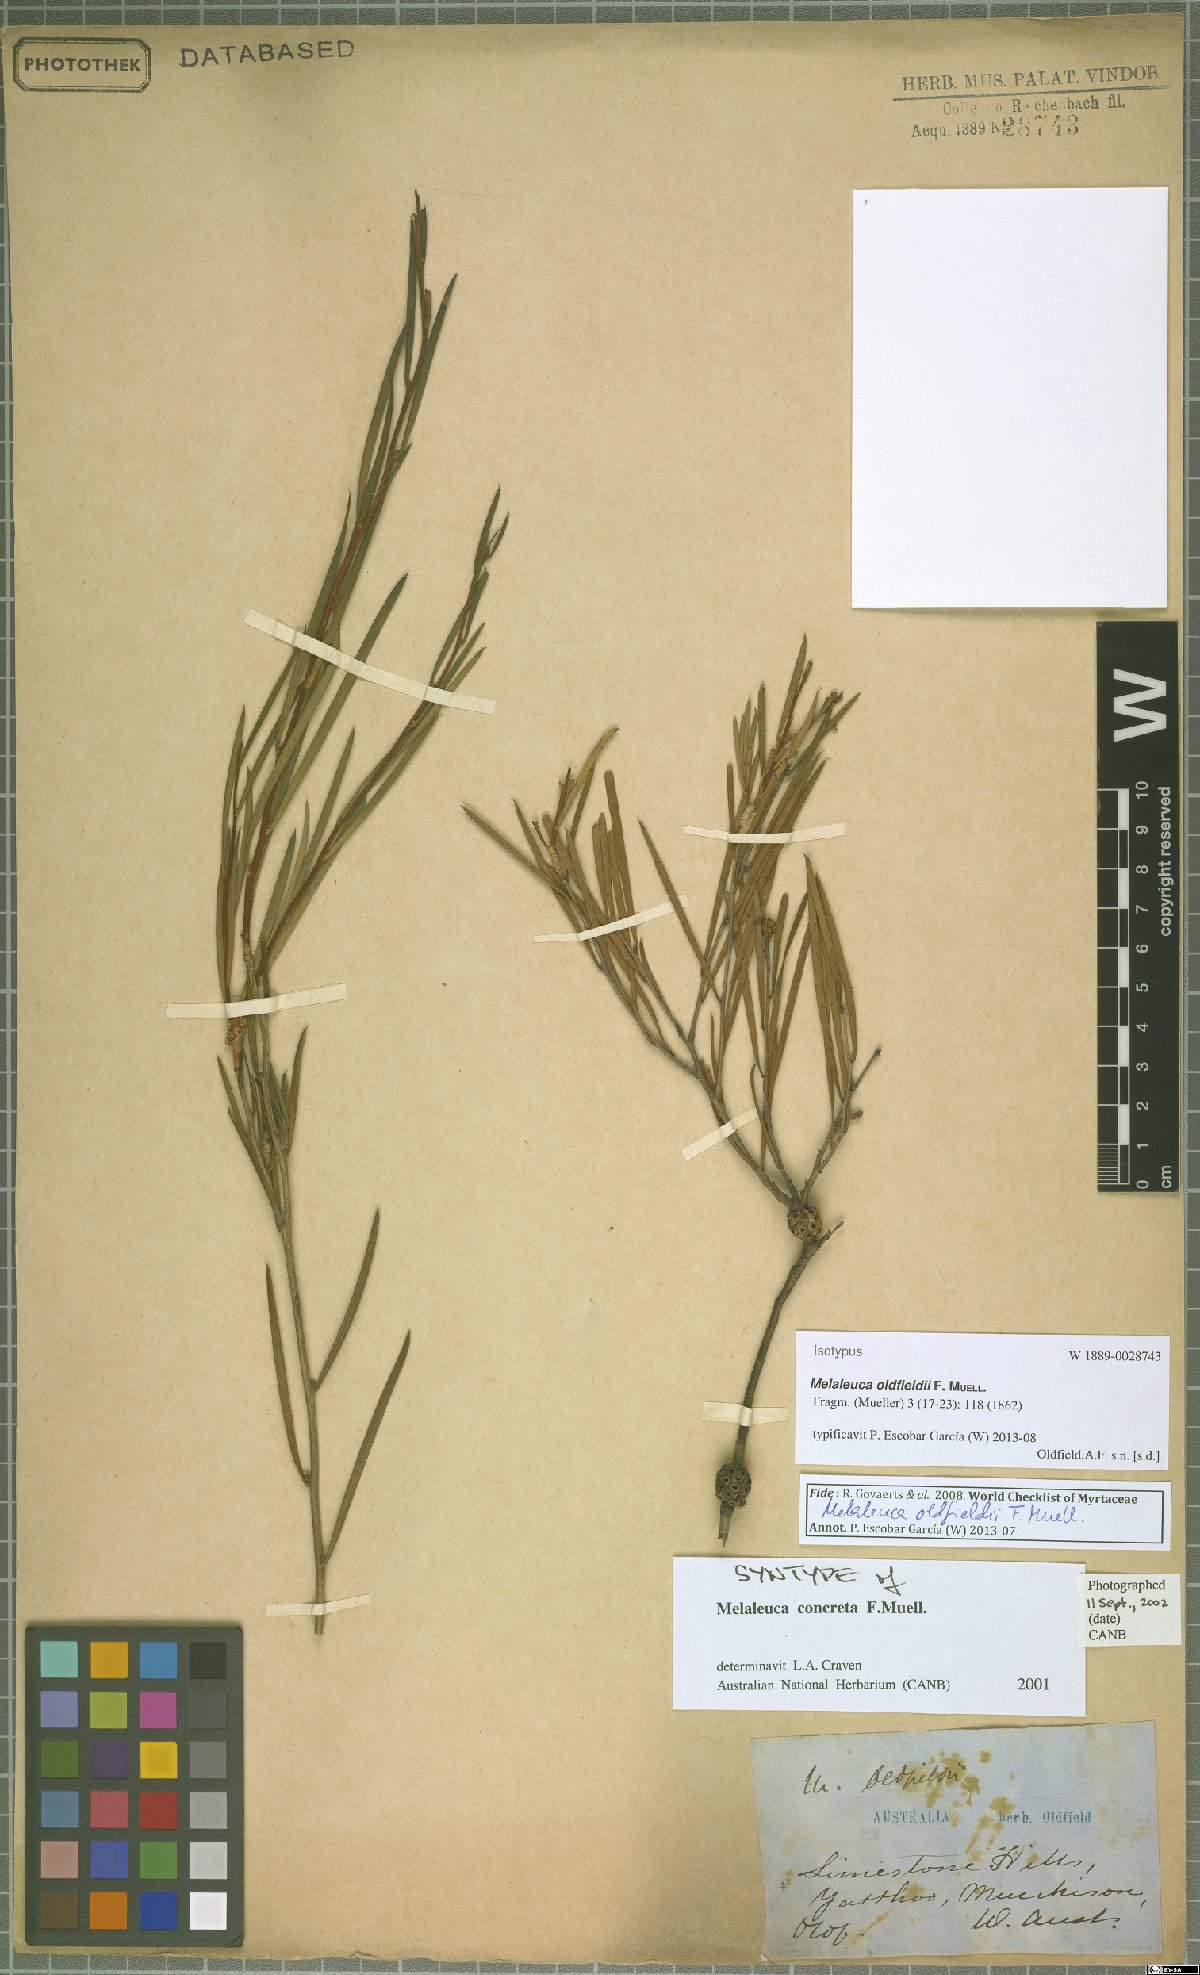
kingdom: Plantae
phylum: Tracheophyta
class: Magnoliopsida
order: Myrtales
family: Myrtaceae
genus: Melaleuca
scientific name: Melaleuca oldfieldii
